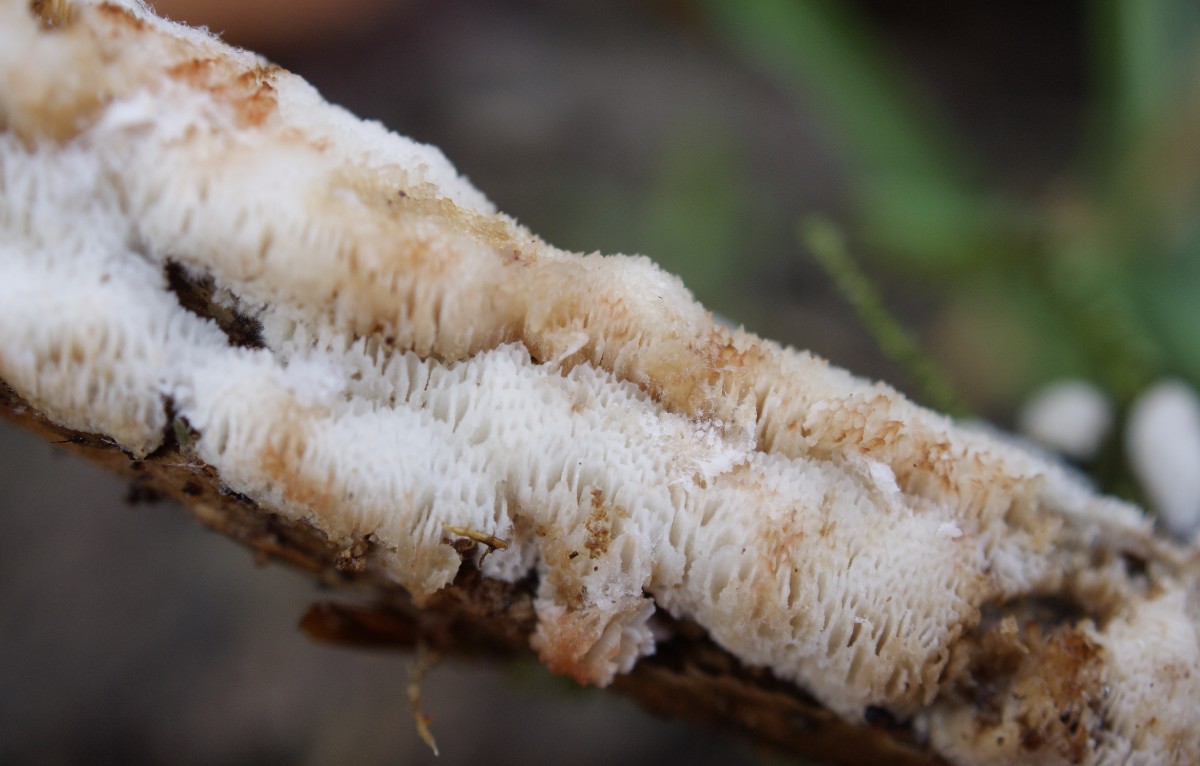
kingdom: Fungi
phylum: Basidiomycota
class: Agaricomycetes
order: Polyporales
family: Meripilaceae
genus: Rigidoporus
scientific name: Rigidoporus sanguinolentus
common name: blod-skorpeporesvamp
